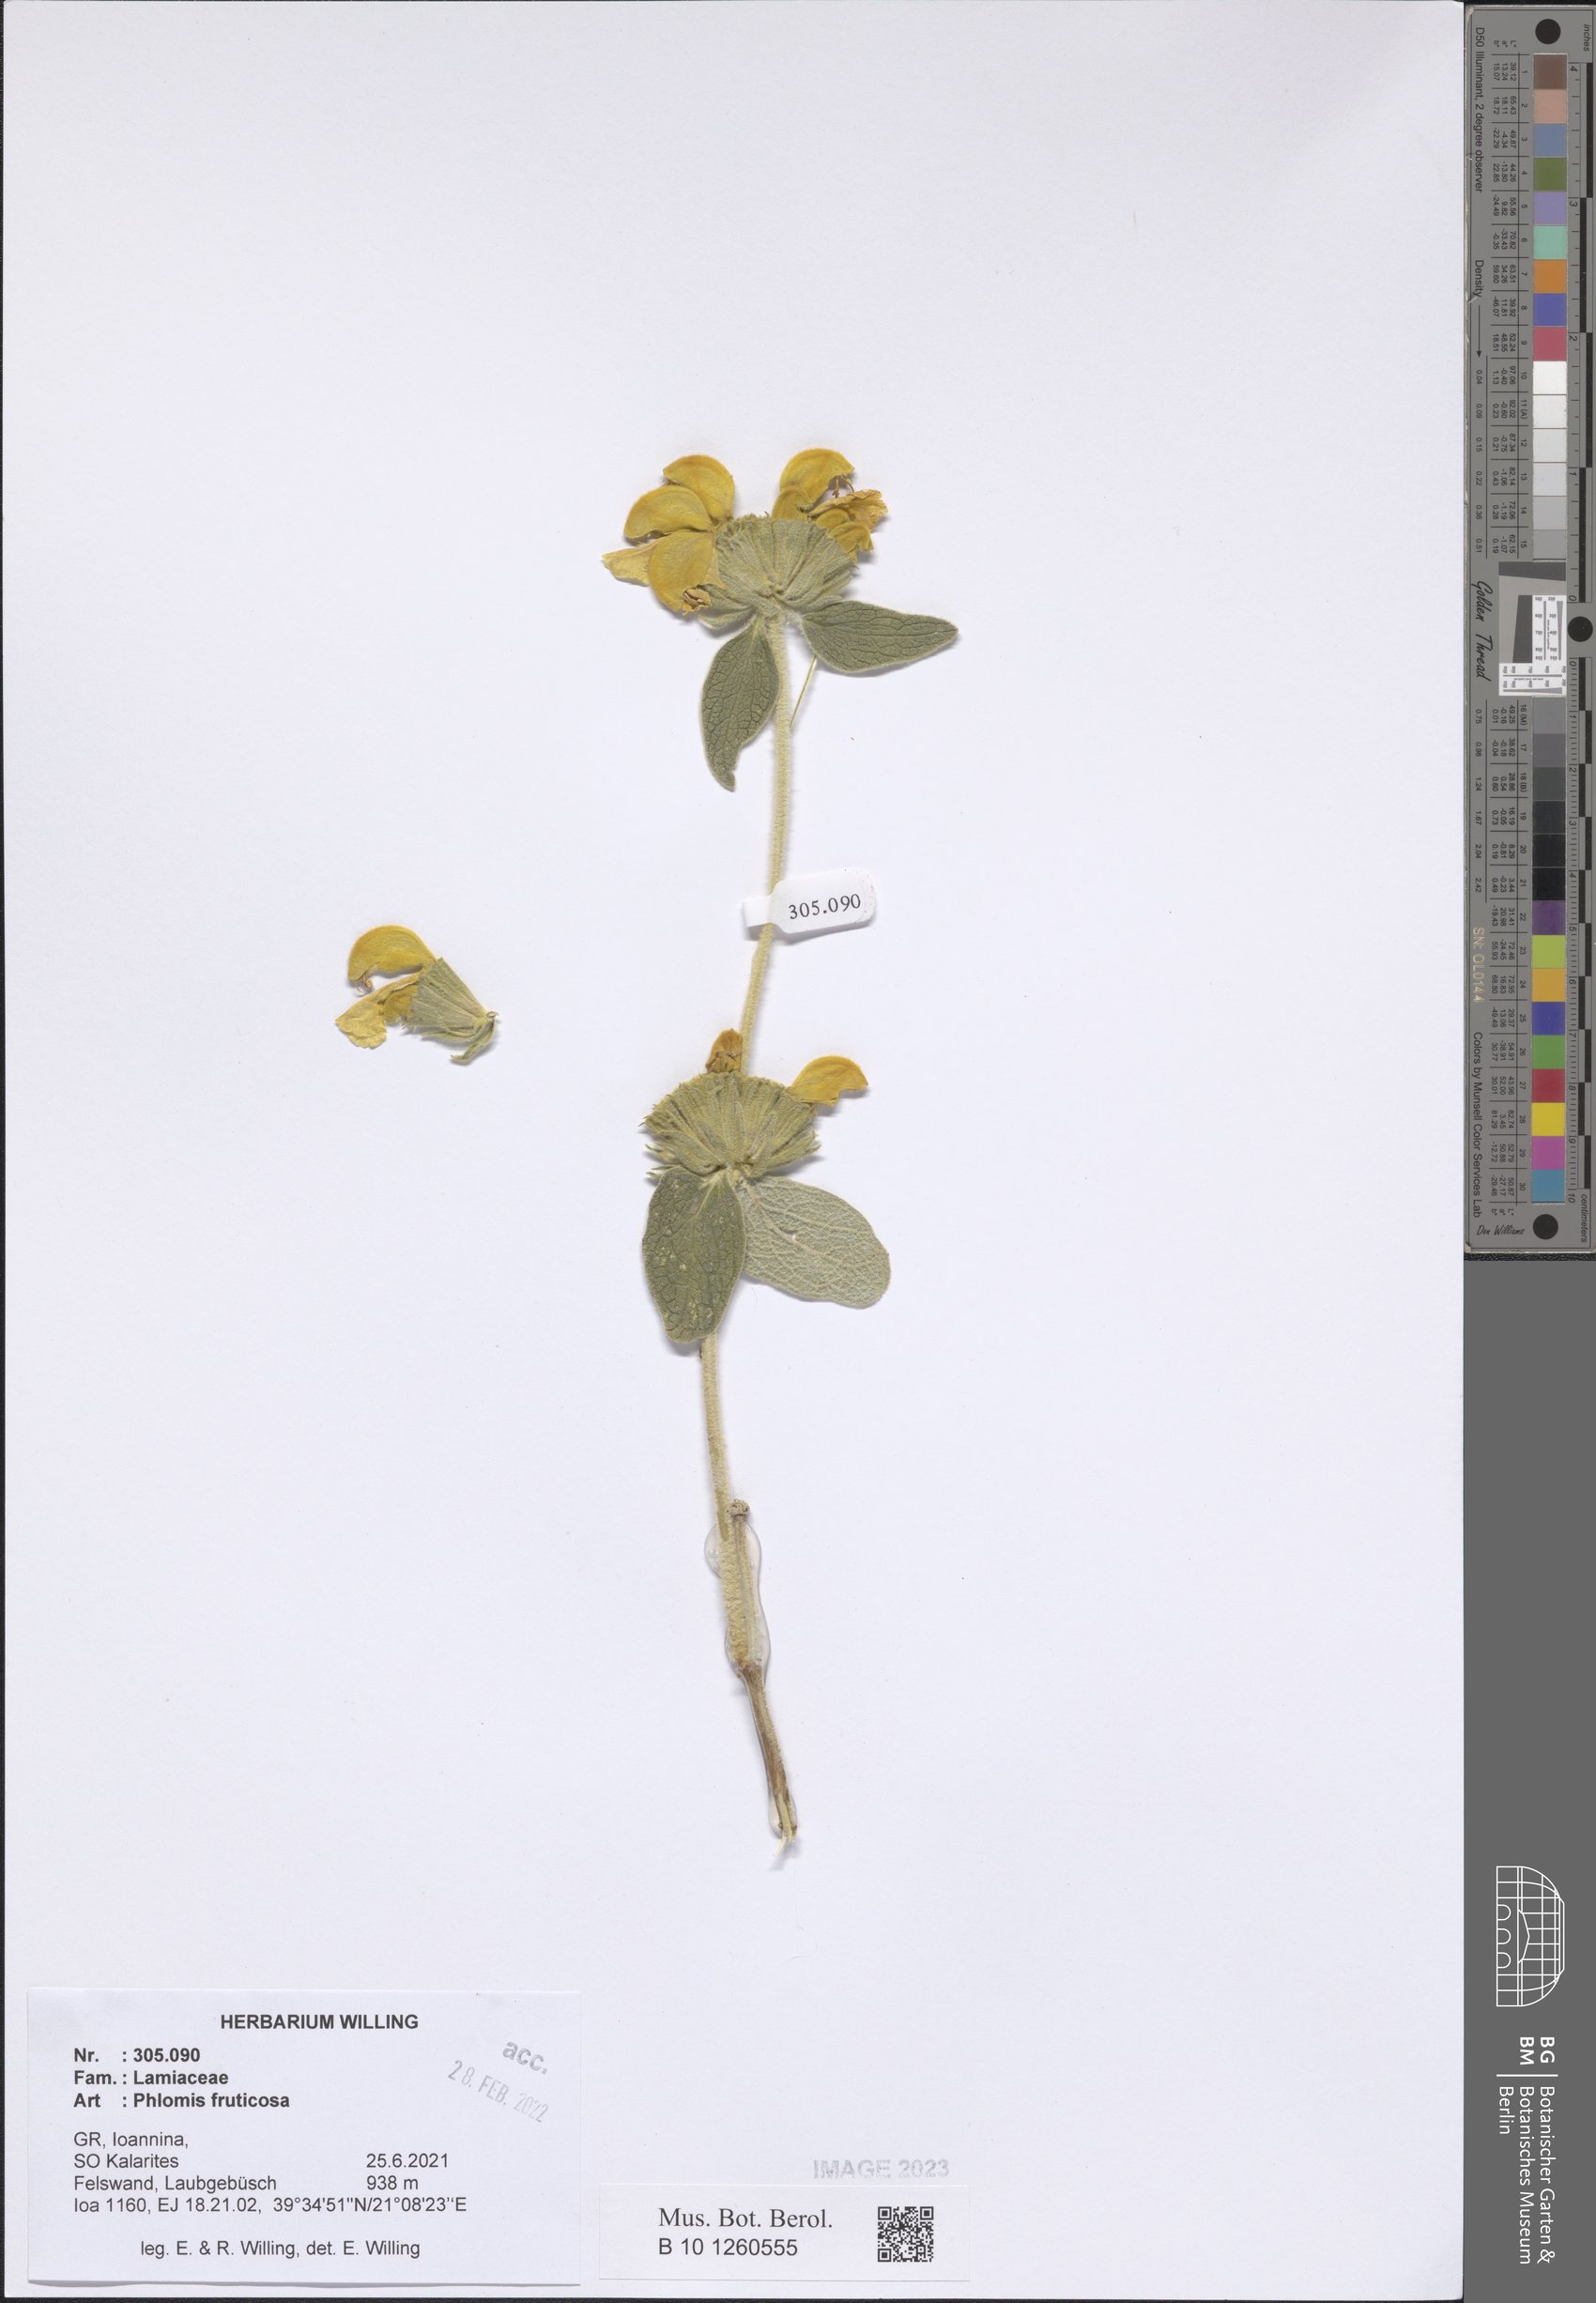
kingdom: Plantae
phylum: Tracheophyta
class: Magnoliopsida
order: Lamiales
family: Lamiaceae
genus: Phlomis
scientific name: Phlomis fruticosa
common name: Jerusalem sage
